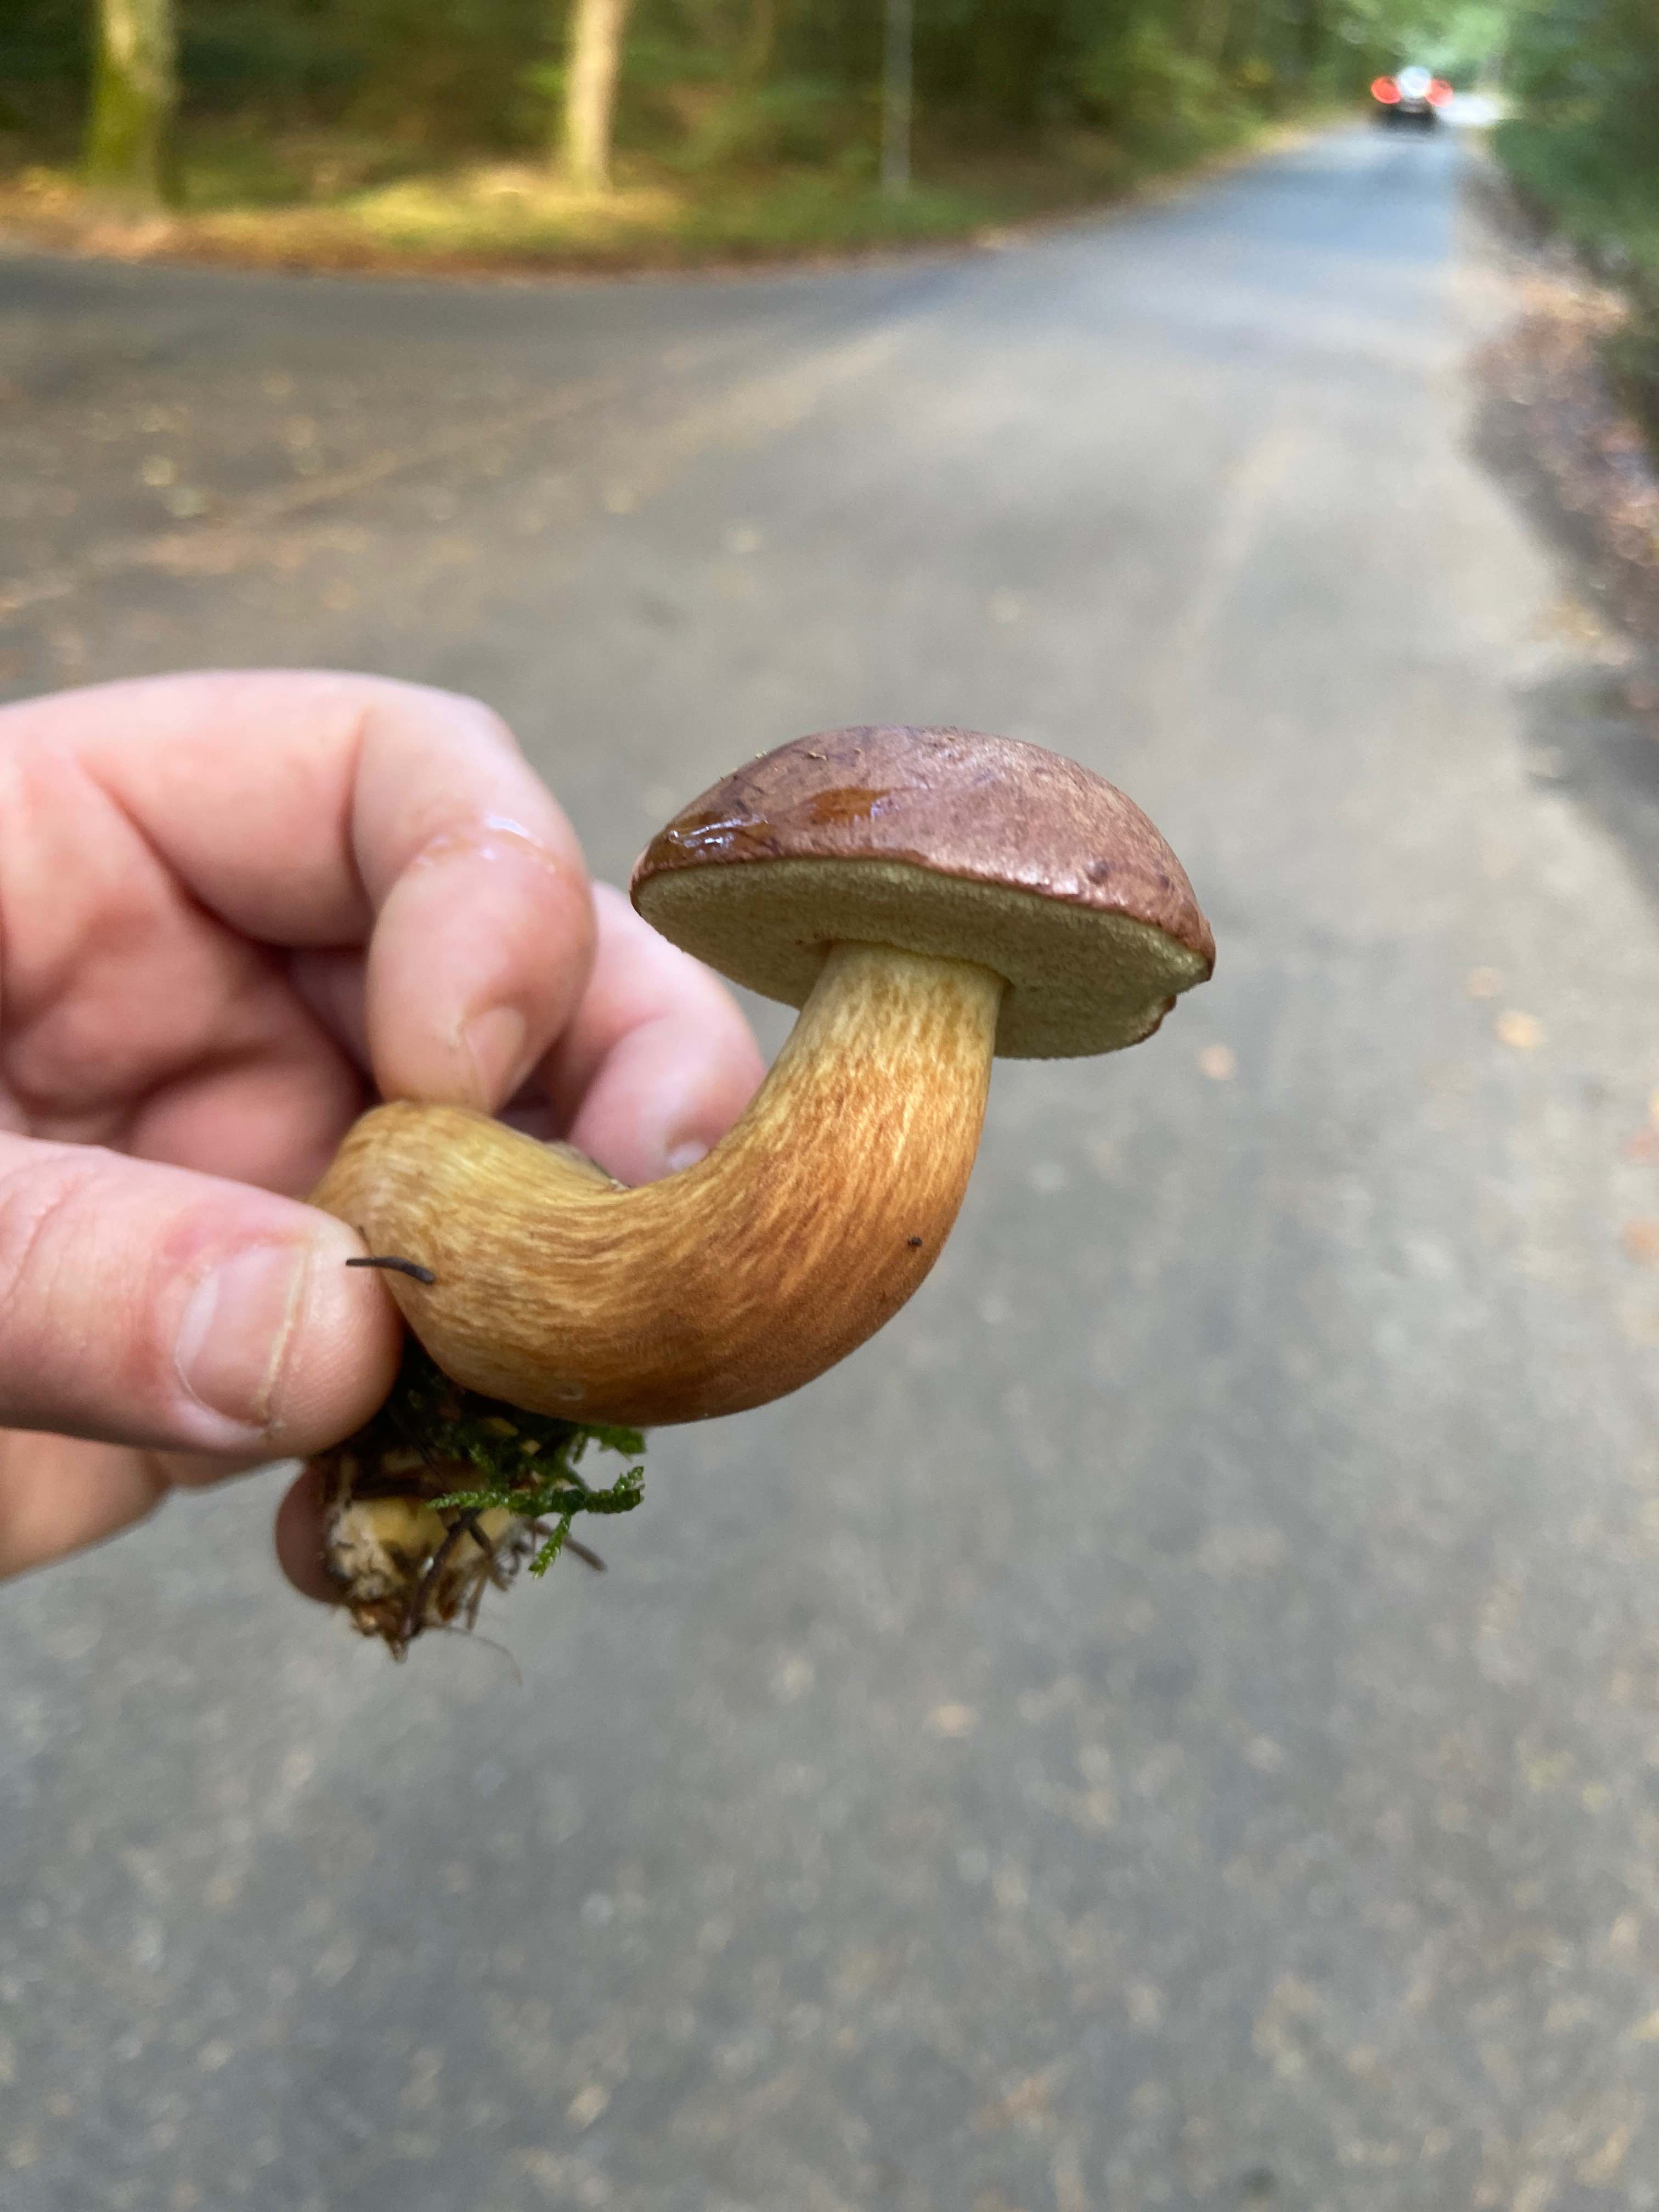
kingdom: Fungi
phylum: Basidiomycota
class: Agaricomycetes
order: Boletales
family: Boletaceae
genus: Imleria
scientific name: Imleria badia
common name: brunstokket rørhat
